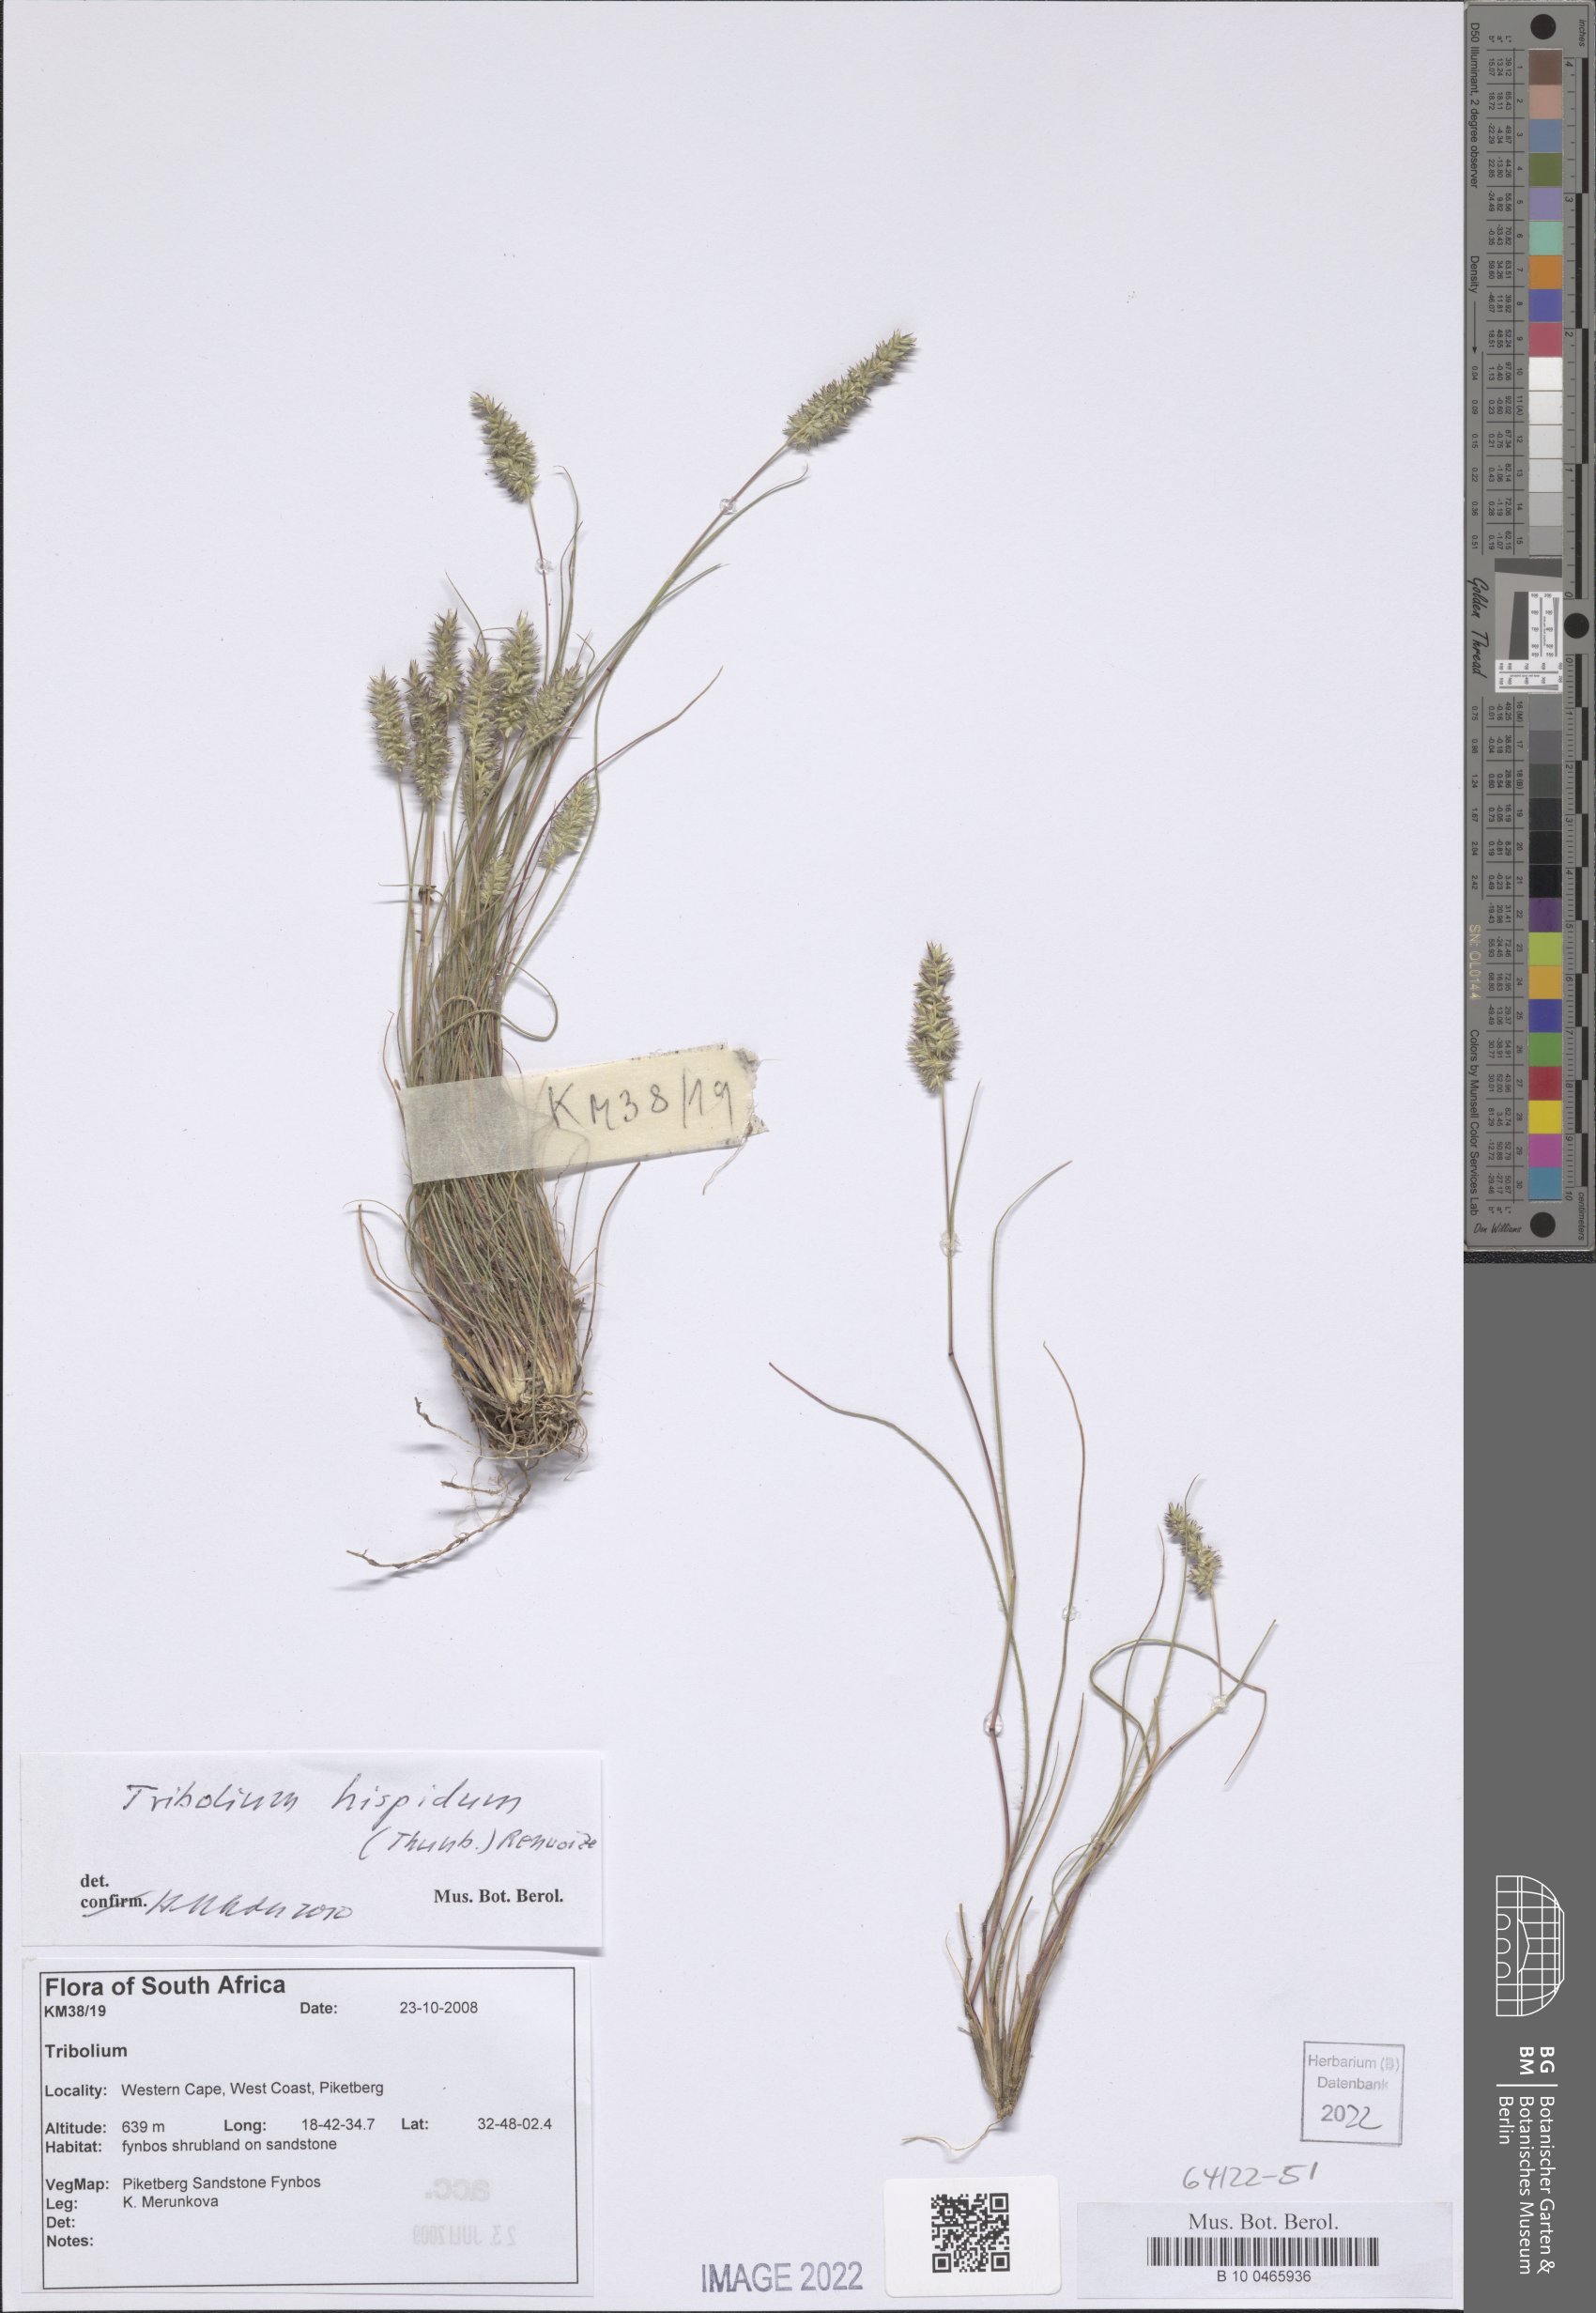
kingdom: Plantae
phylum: Tracheophyta
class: Liliopsida
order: Poales
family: Poaceae
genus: Tribolium
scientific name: Tribolium hispidum
